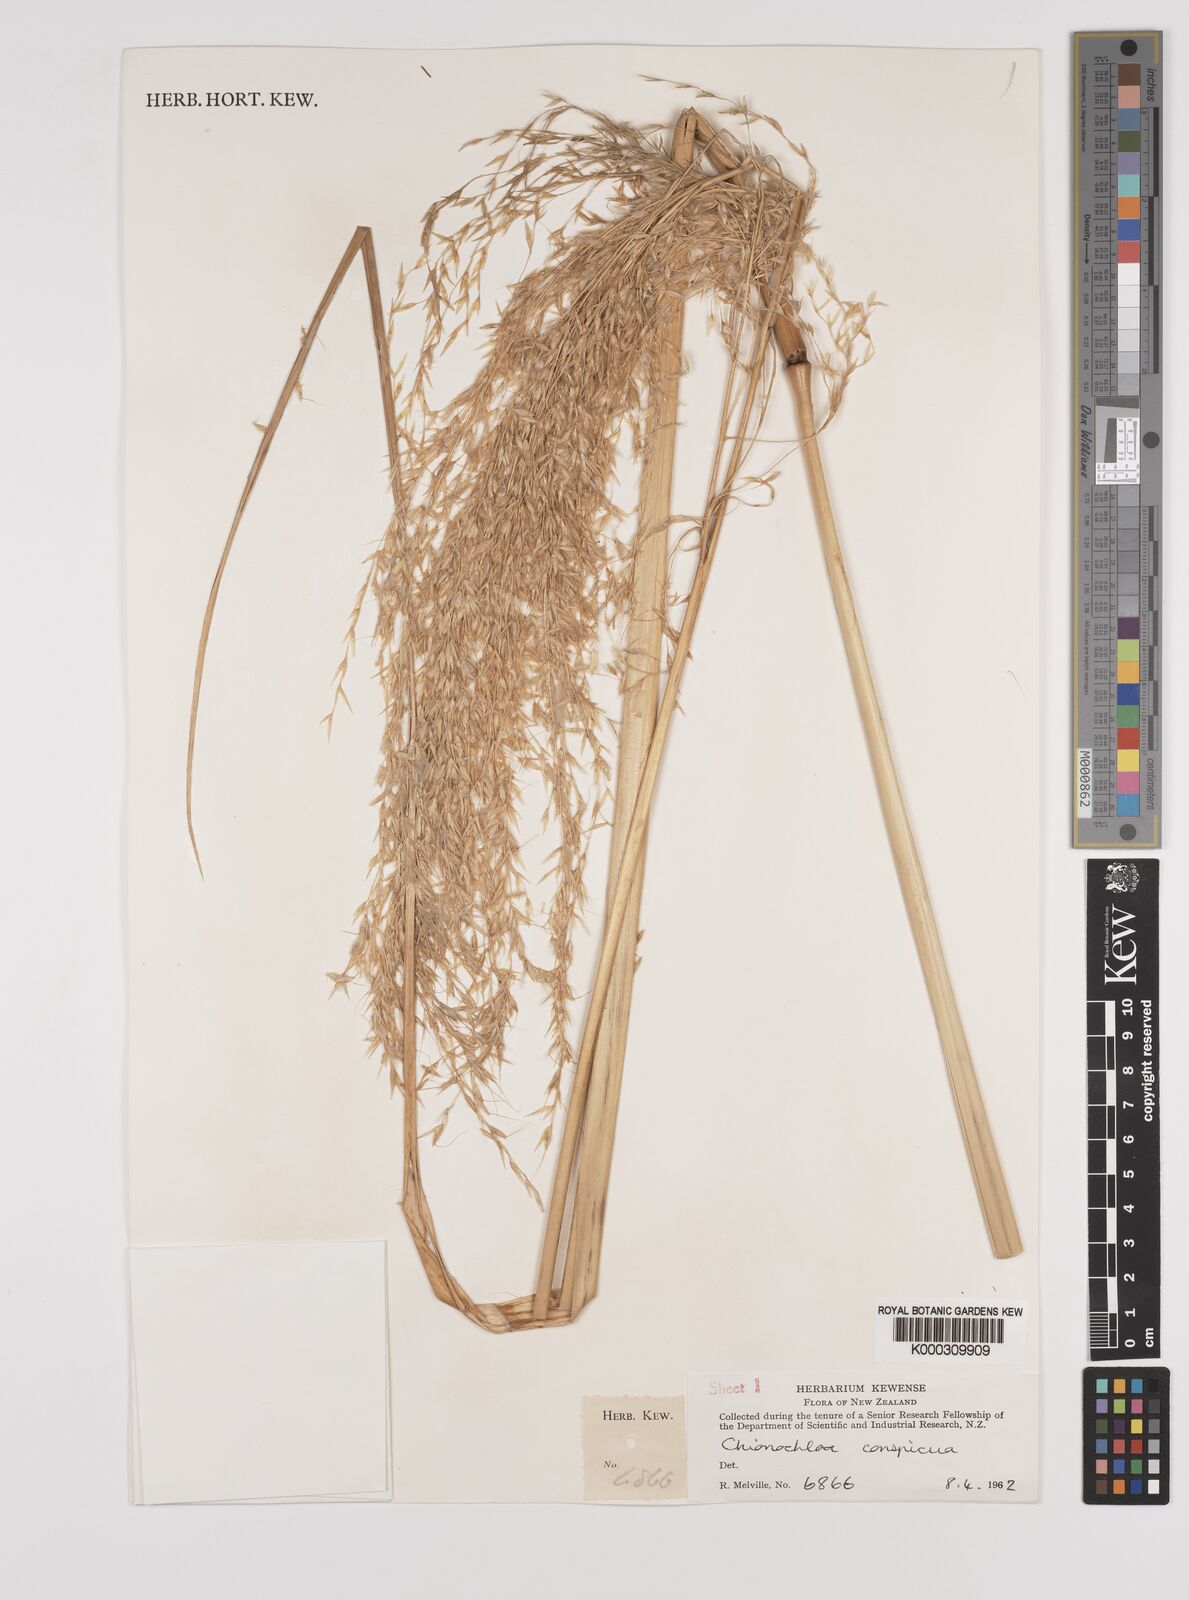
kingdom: Plantae
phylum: Tracheophyta
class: Liliopsida
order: Poales
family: Poaceae
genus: Chionochloa
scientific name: Chionochloa conspicua
